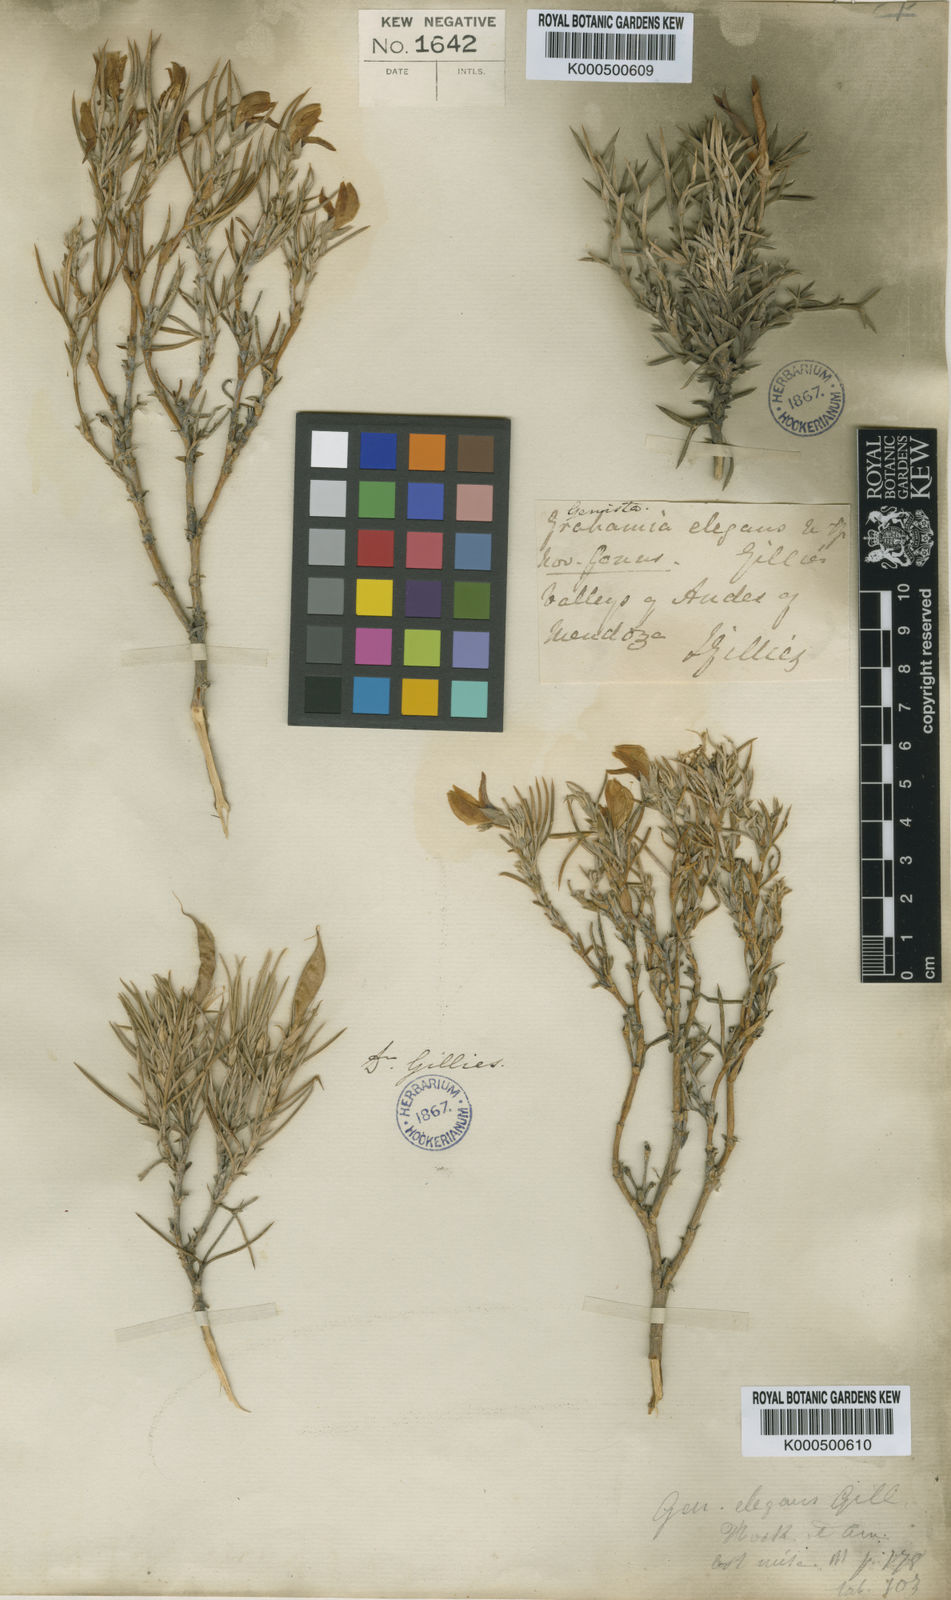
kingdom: Plantae
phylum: Tracheophyta
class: Magnoliopsida
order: Fabales
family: Fabaceae
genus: Anarthrophyllum
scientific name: Anarthrophyllum elegans
